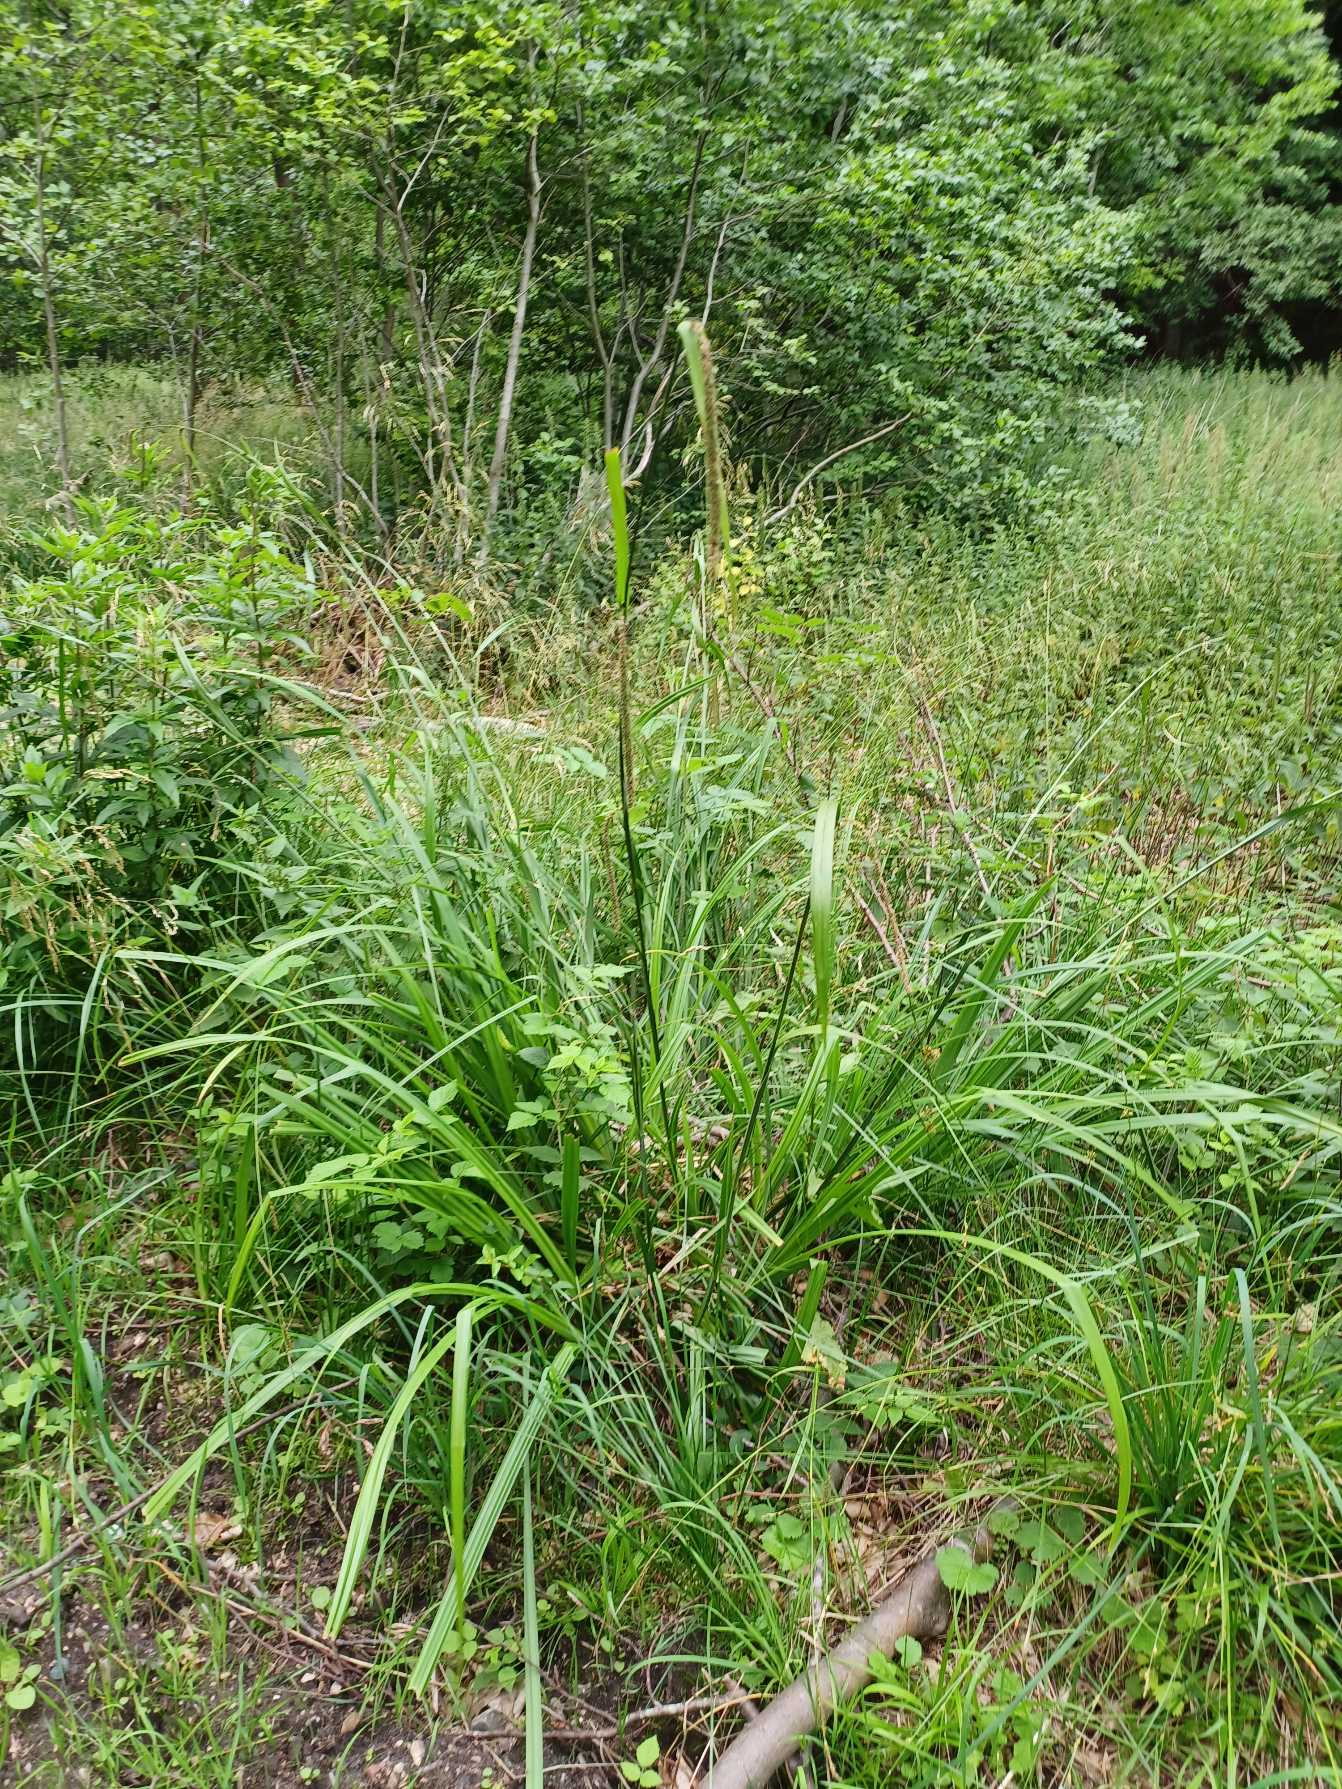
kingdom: Plantae
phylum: Tracheophyta
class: Liliopsida
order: Poales
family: Cyperaceae
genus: Carex
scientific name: Carex pendula
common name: Kæmpe-star
